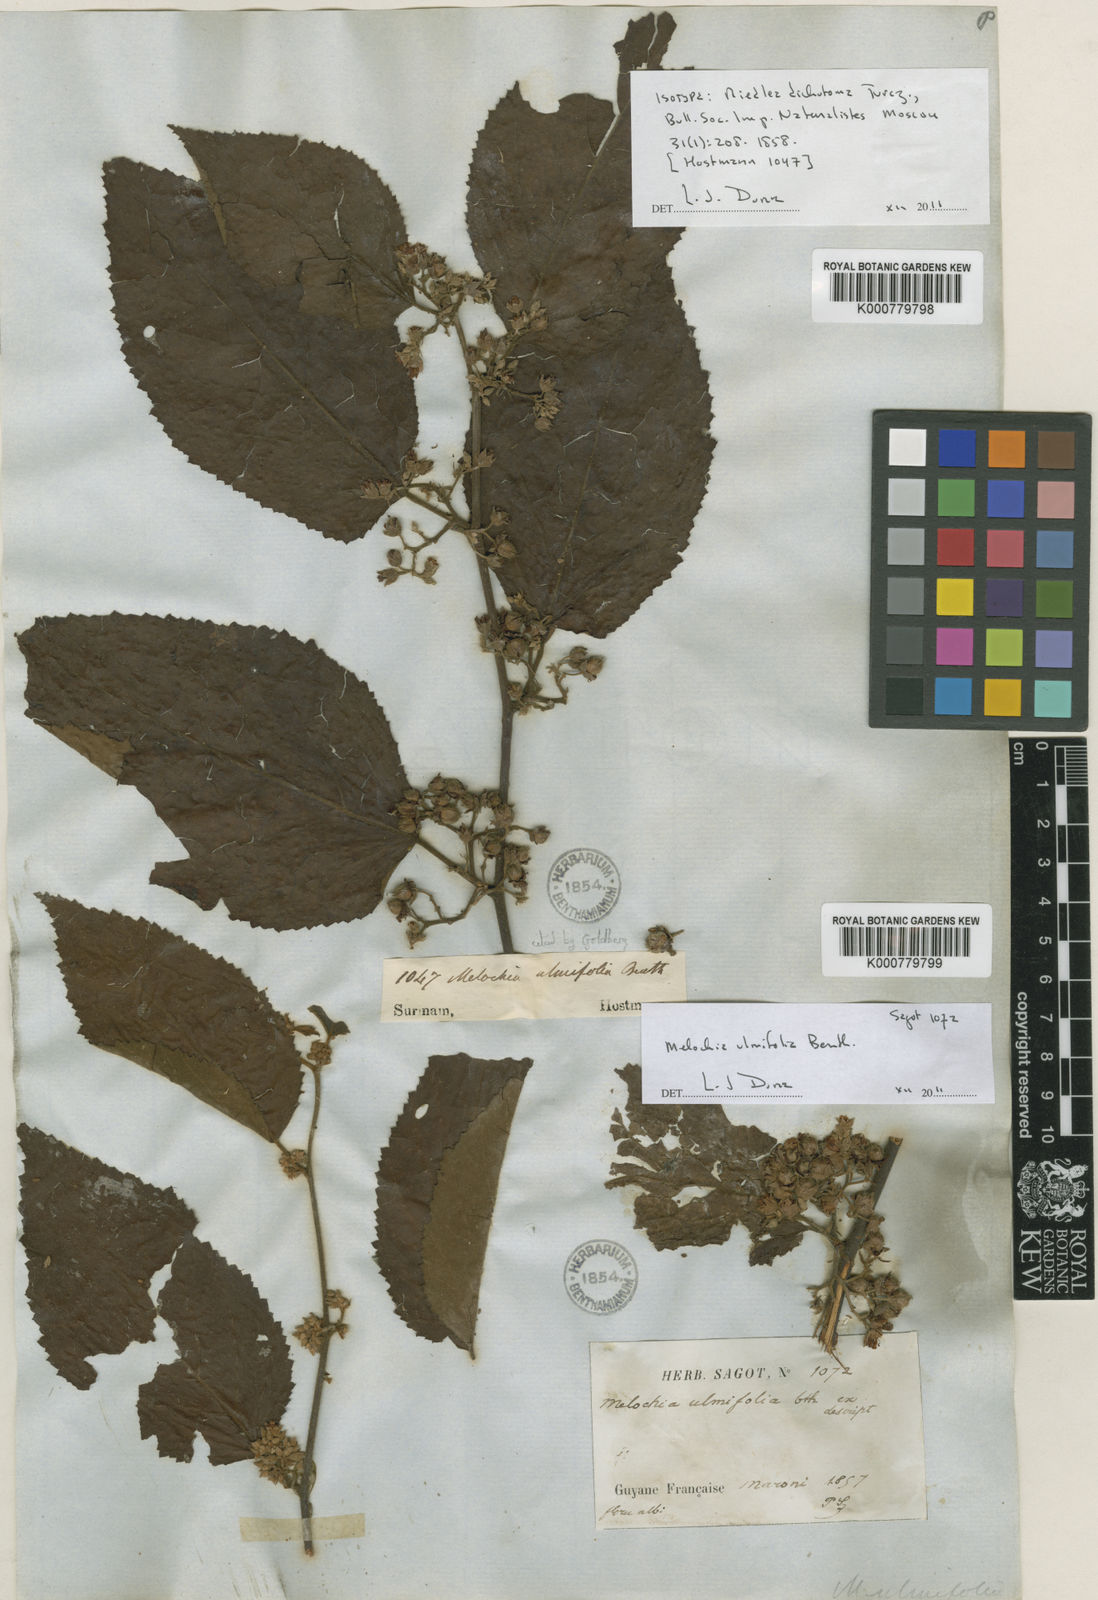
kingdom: Plantae
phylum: Tracheophyta
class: Magnoliopsida
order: Malvales
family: Malvaceae
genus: Melochia
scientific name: Melochia ulmifolia
